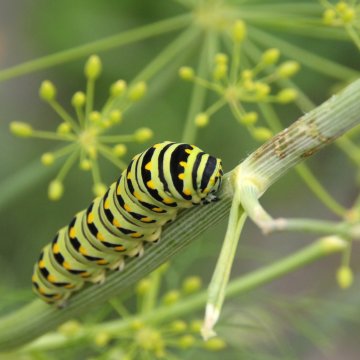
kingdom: Animalia
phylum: Arthropoda
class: Insecta
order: Lepidoptera
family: Papilionidae
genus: Papilio
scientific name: Papilio polyxenes
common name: Black Swallowtail
